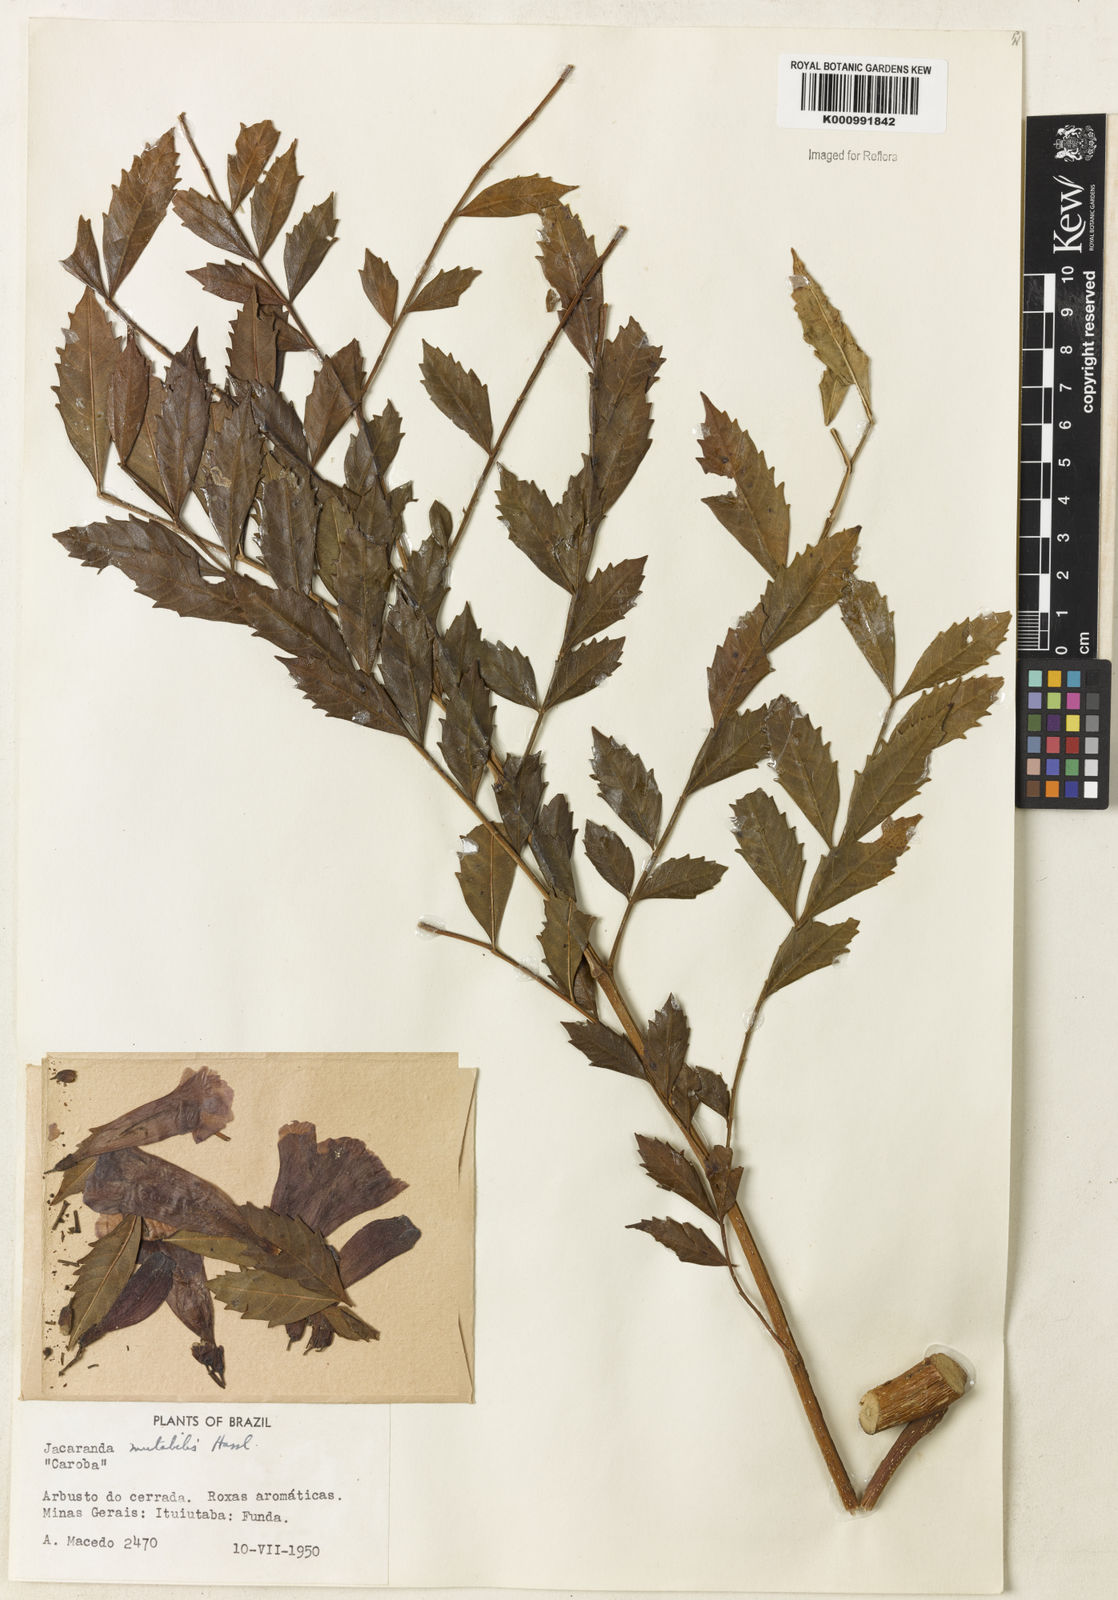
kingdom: Plantae
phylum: Tracheophyta
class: Magnoliopsida
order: Lamiales
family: Bignoniaceae
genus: Jacaranda
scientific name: Jacaranda mutabilis
